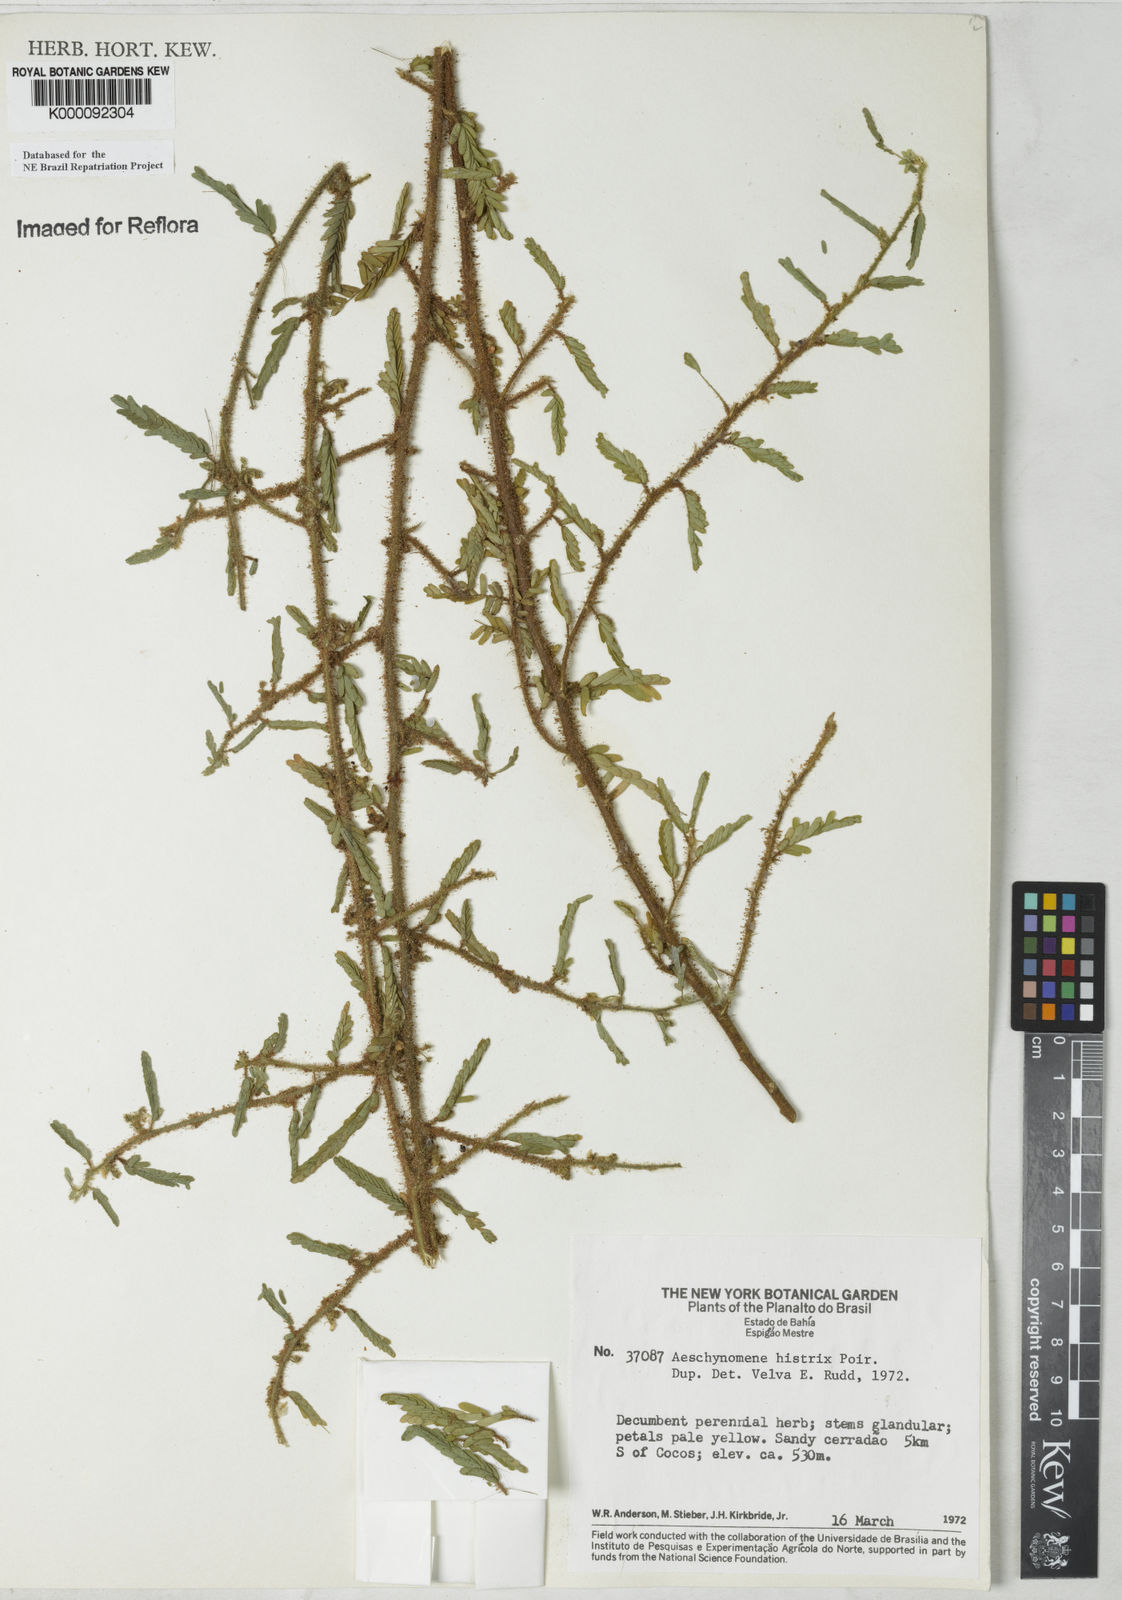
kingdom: Plantae
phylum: Tracheophyta
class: Magnoliopsida
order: Fabales
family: Fabaceae
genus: Ctenodon
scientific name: Ctenodon histrix
